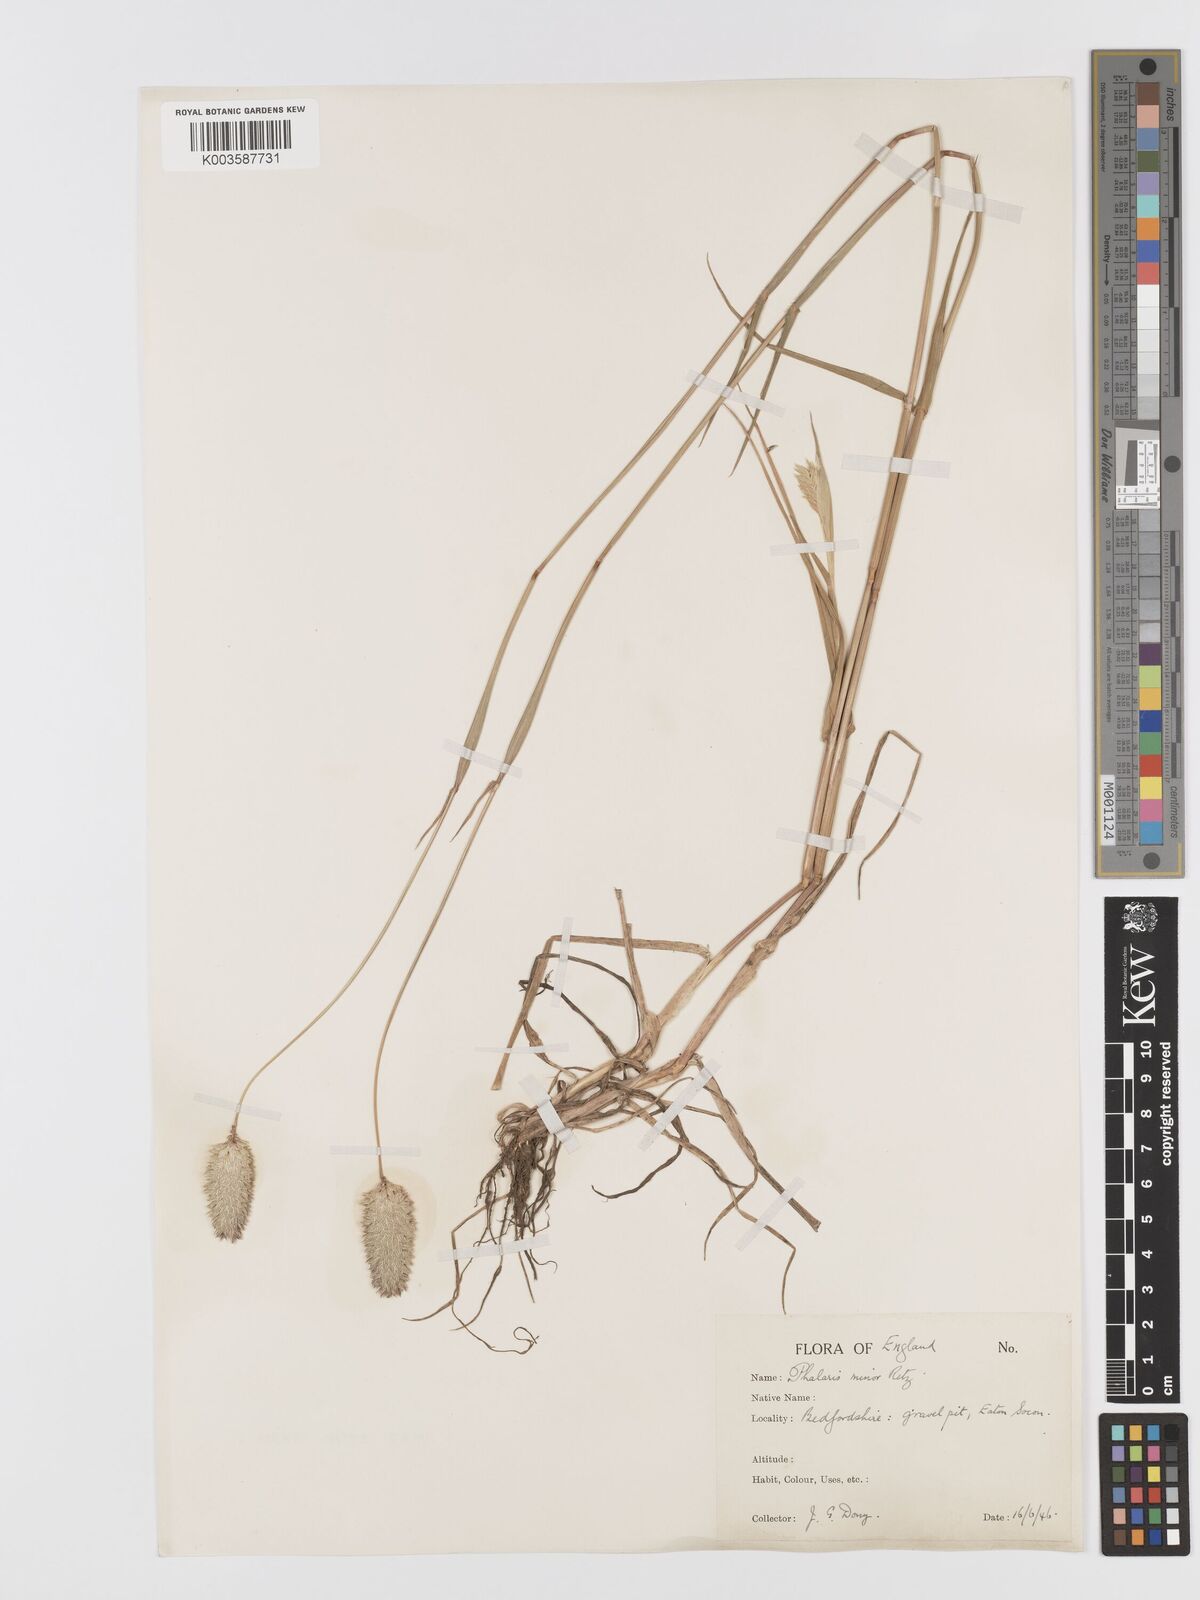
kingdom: Plantae
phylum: Tracheophyta
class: Liliopsida
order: Poales
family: Poaceae
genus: Phalaris
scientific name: Phalaris minor
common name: Littleseed canarygrass
